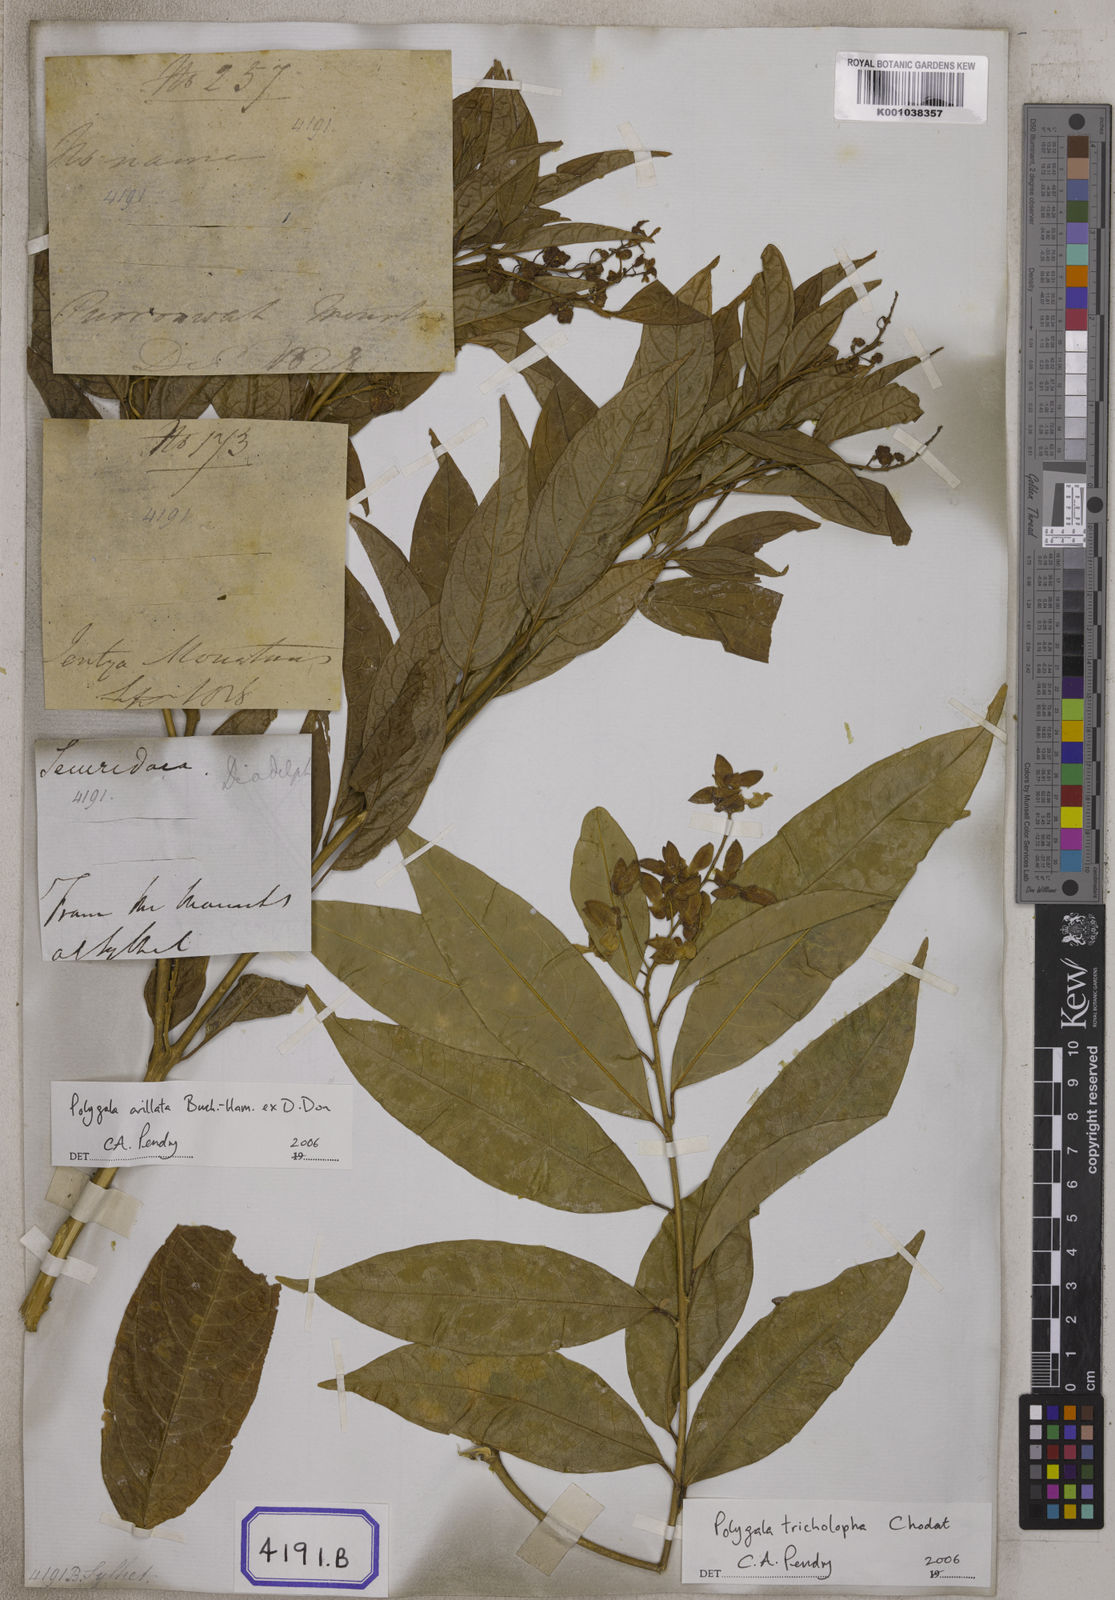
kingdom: Plantae
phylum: Tracheophyta
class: Magnoliopsida
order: Fabales
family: Polygalaceae
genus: Polygala
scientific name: Polygala arillata
